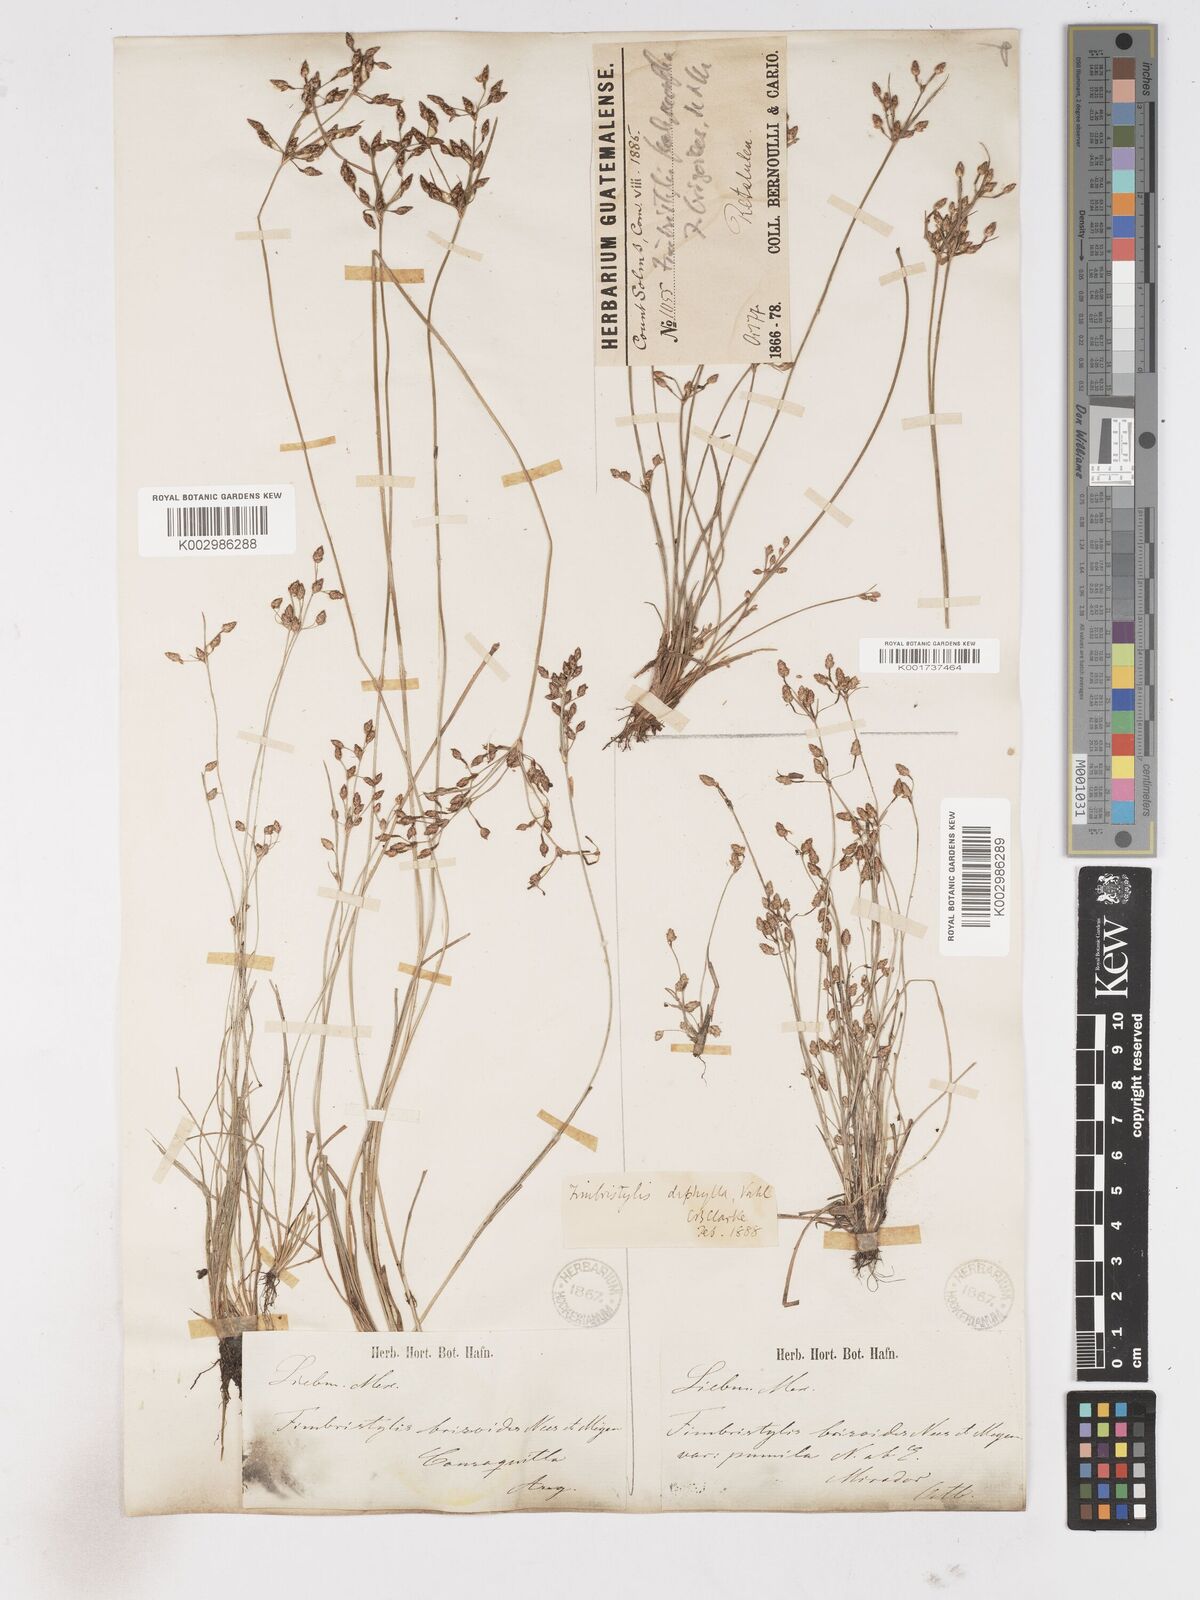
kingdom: Plantae
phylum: Tracheophyta
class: Liliopsida
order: Poales
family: Cyperaceae
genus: Fimbristylis
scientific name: Fimbristylis dichotoma
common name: Forked fimbry
